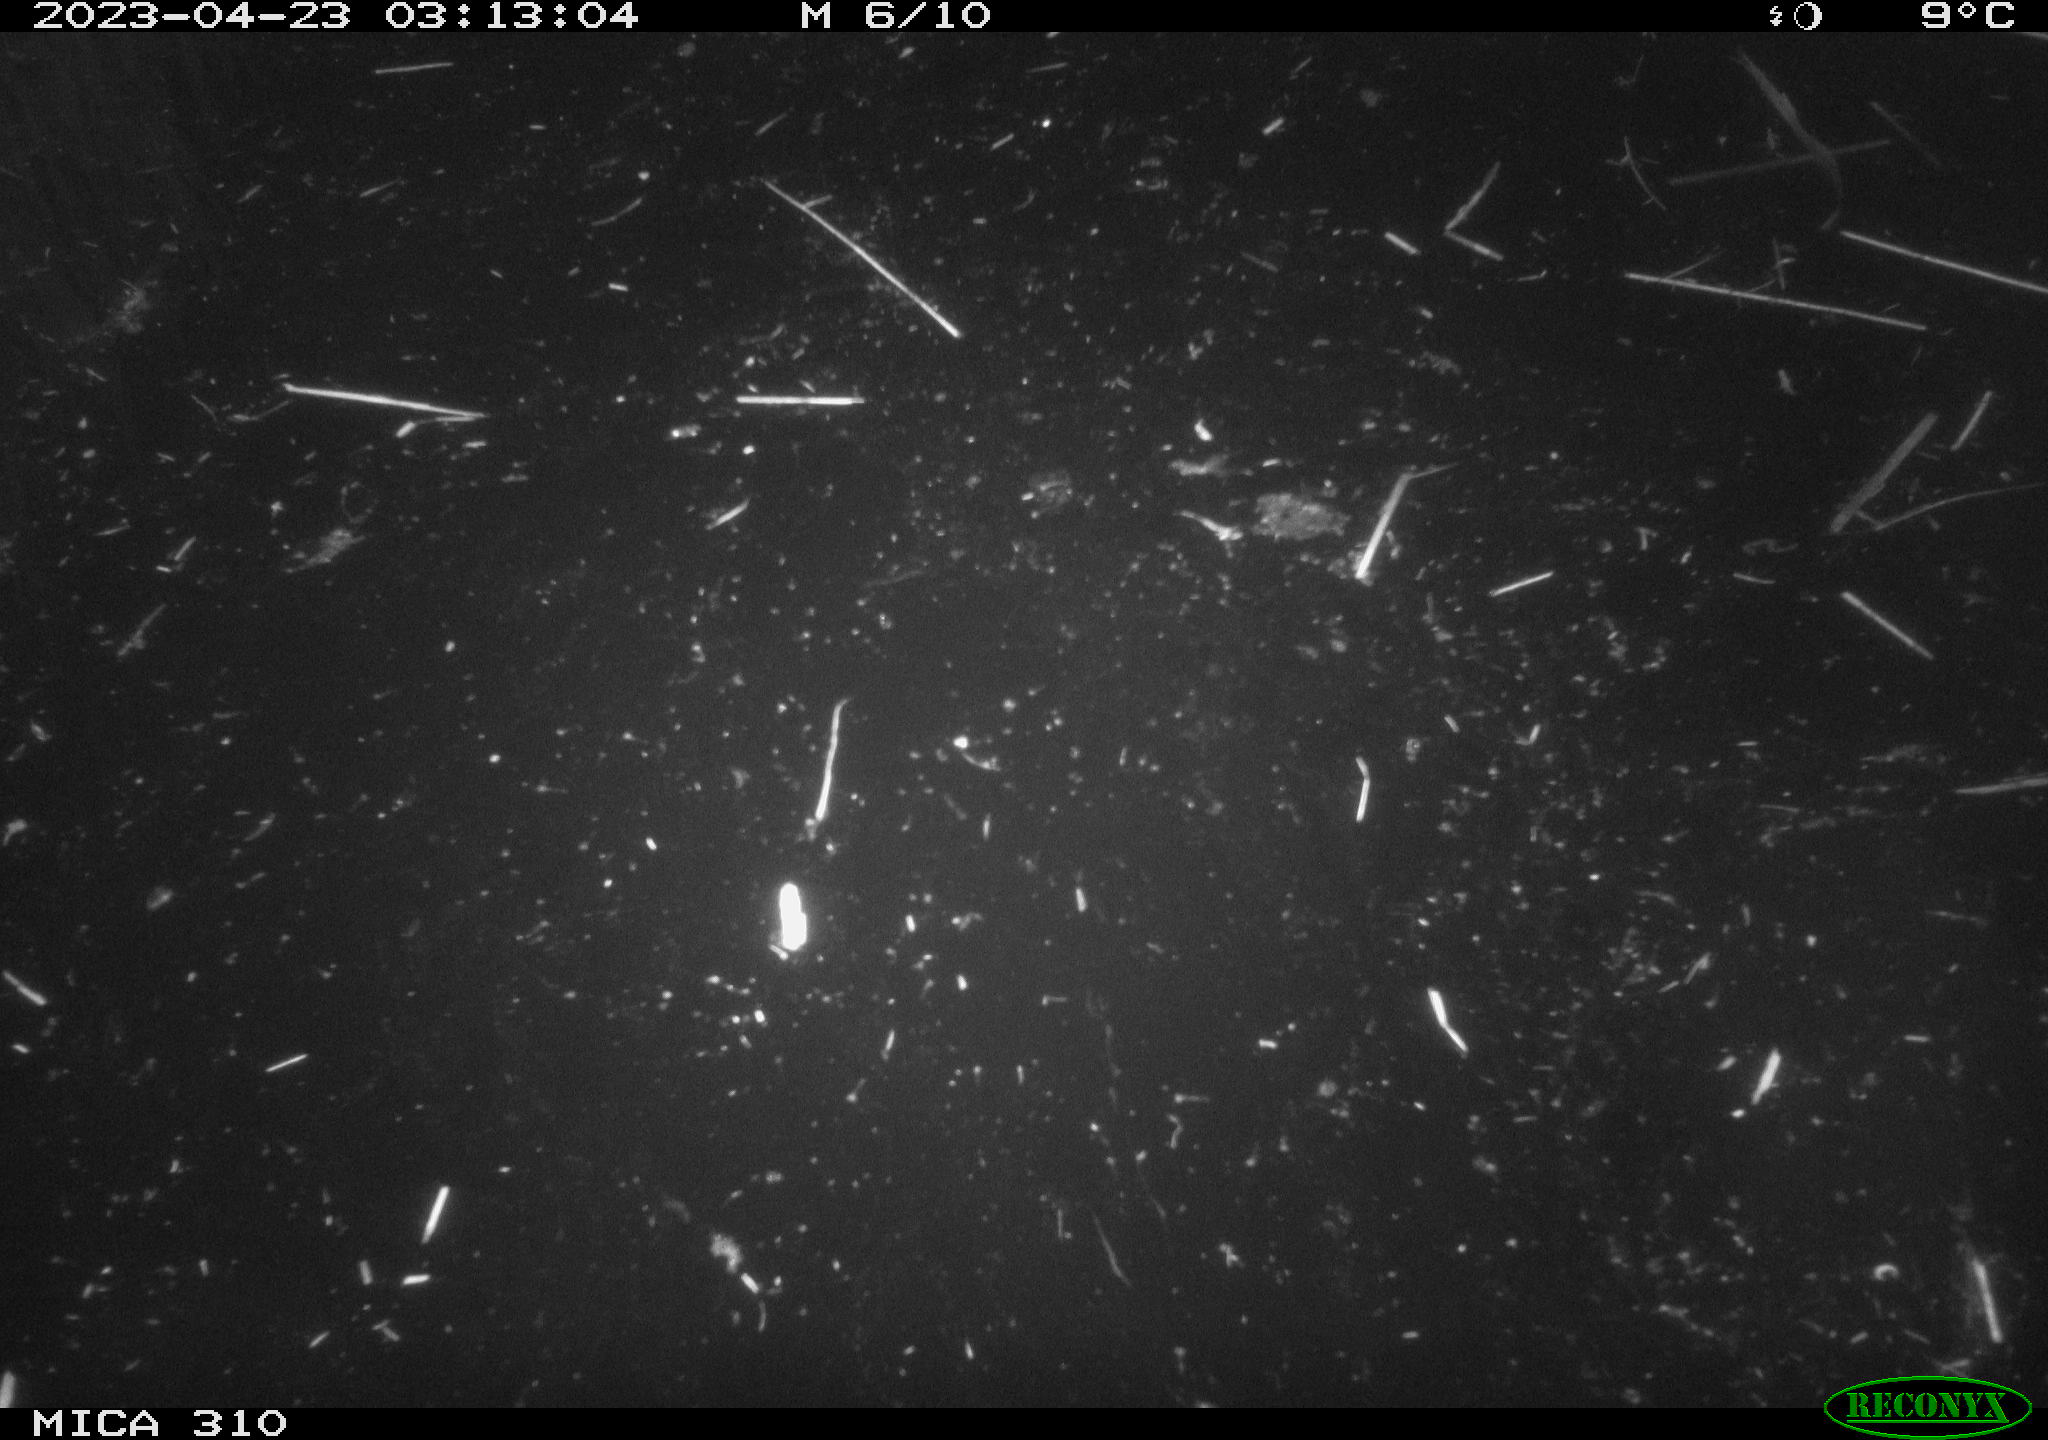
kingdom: Animalia
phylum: Chordata
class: Aves
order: Anseriformes
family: Anatidae
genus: Anas
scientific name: Anas
